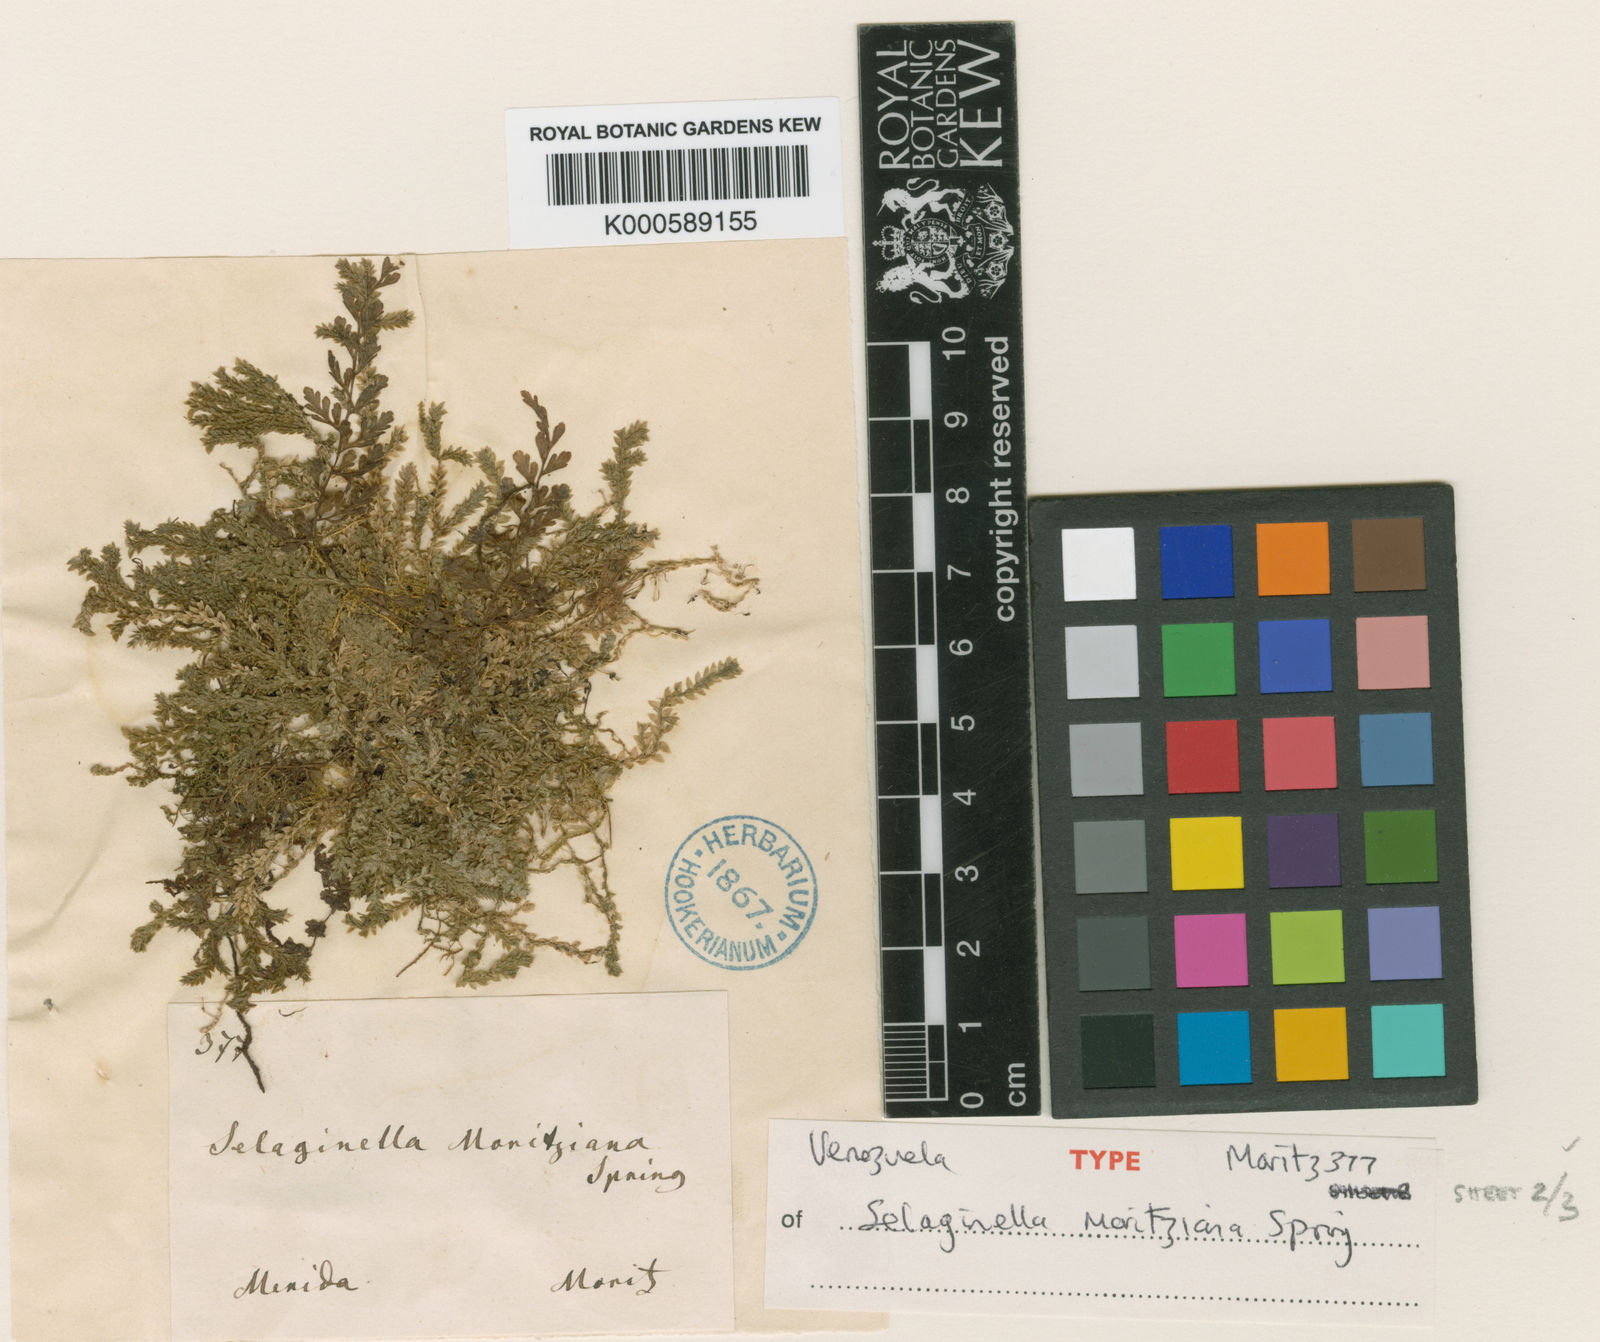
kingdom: Plantae
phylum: Tracheophyta
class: Lycopodiopsida
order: Selaginellales
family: Selaginellaceae
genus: Selaginella
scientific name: Selaginella
